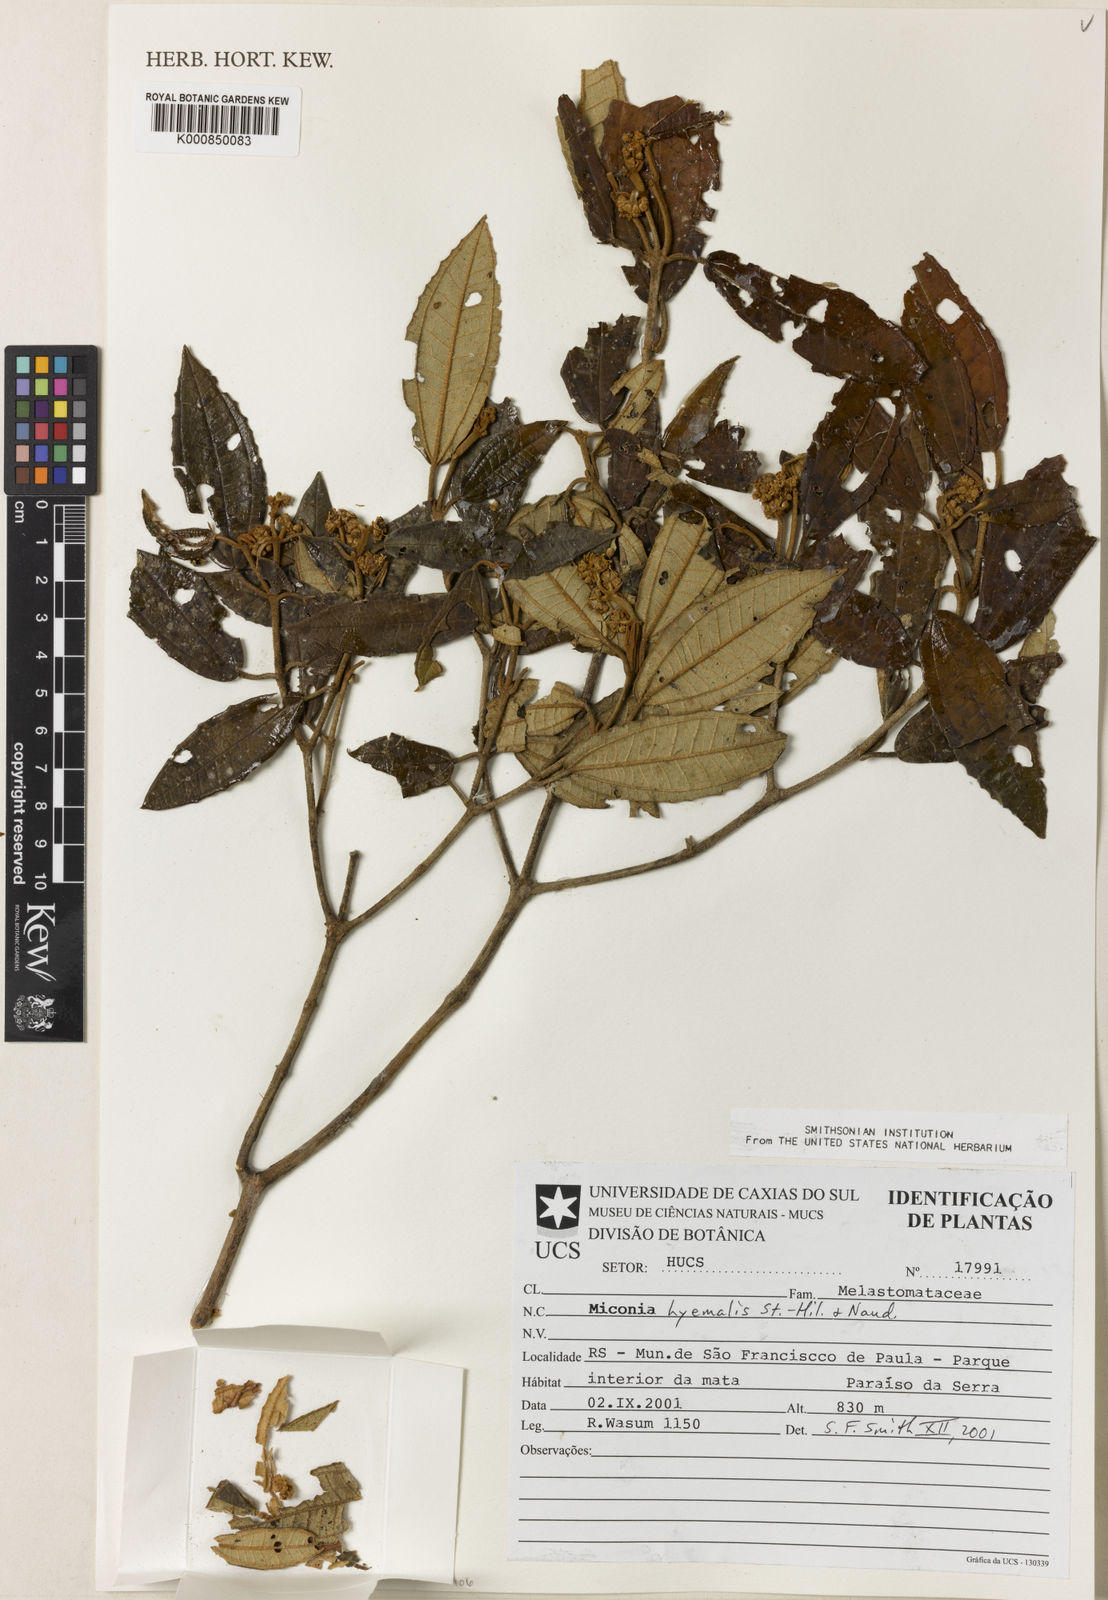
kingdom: Plantae
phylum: Tracheophyta
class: Magnoliopsida
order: Myrtales
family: Melastomataceae
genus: Miconia
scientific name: Miconia hyemalis
